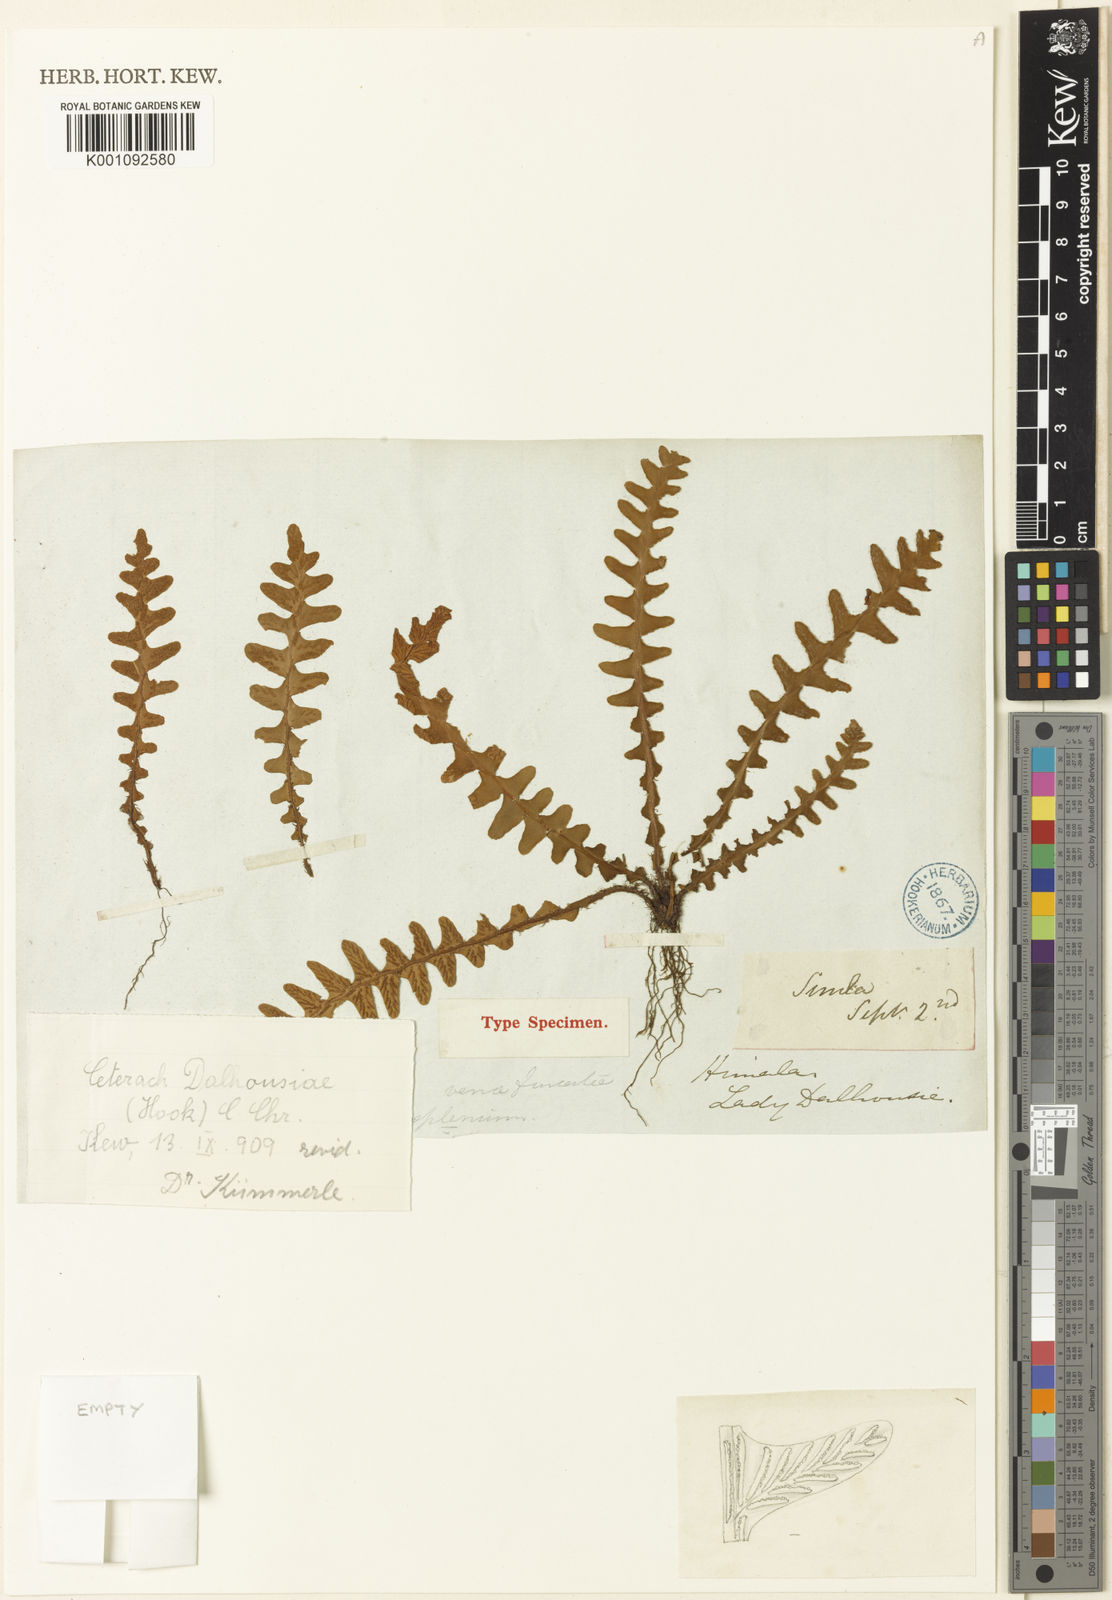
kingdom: Plantae
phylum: Tracheophyta
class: Polypodiopsida
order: Polypodiales
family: Aspleniaceae
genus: Ceterach
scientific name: Ceterach
